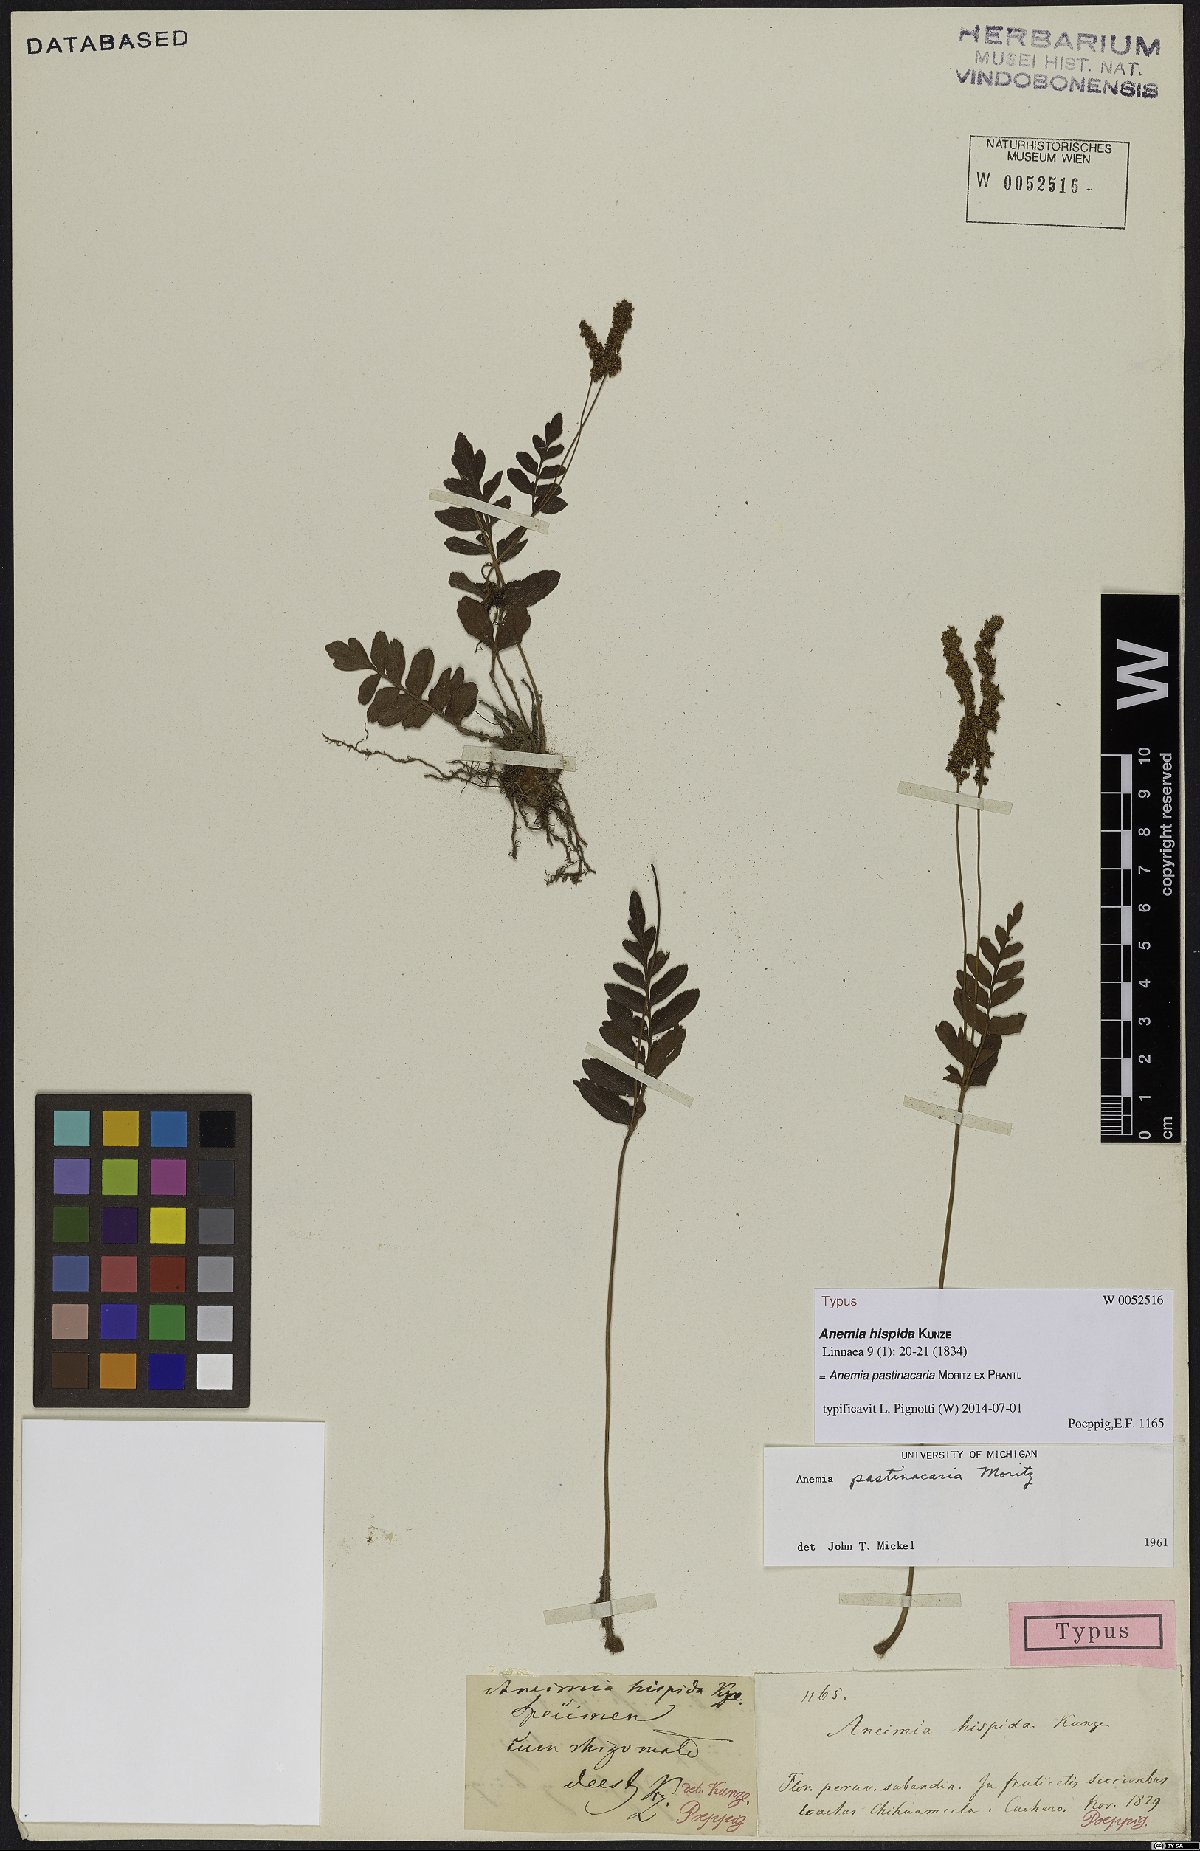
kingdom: Plantae
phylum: Tracheophyta
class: Polypodiopsida
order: Schizaeales
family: Anemiaceae
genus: Anemia
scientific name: Anemia hispida
